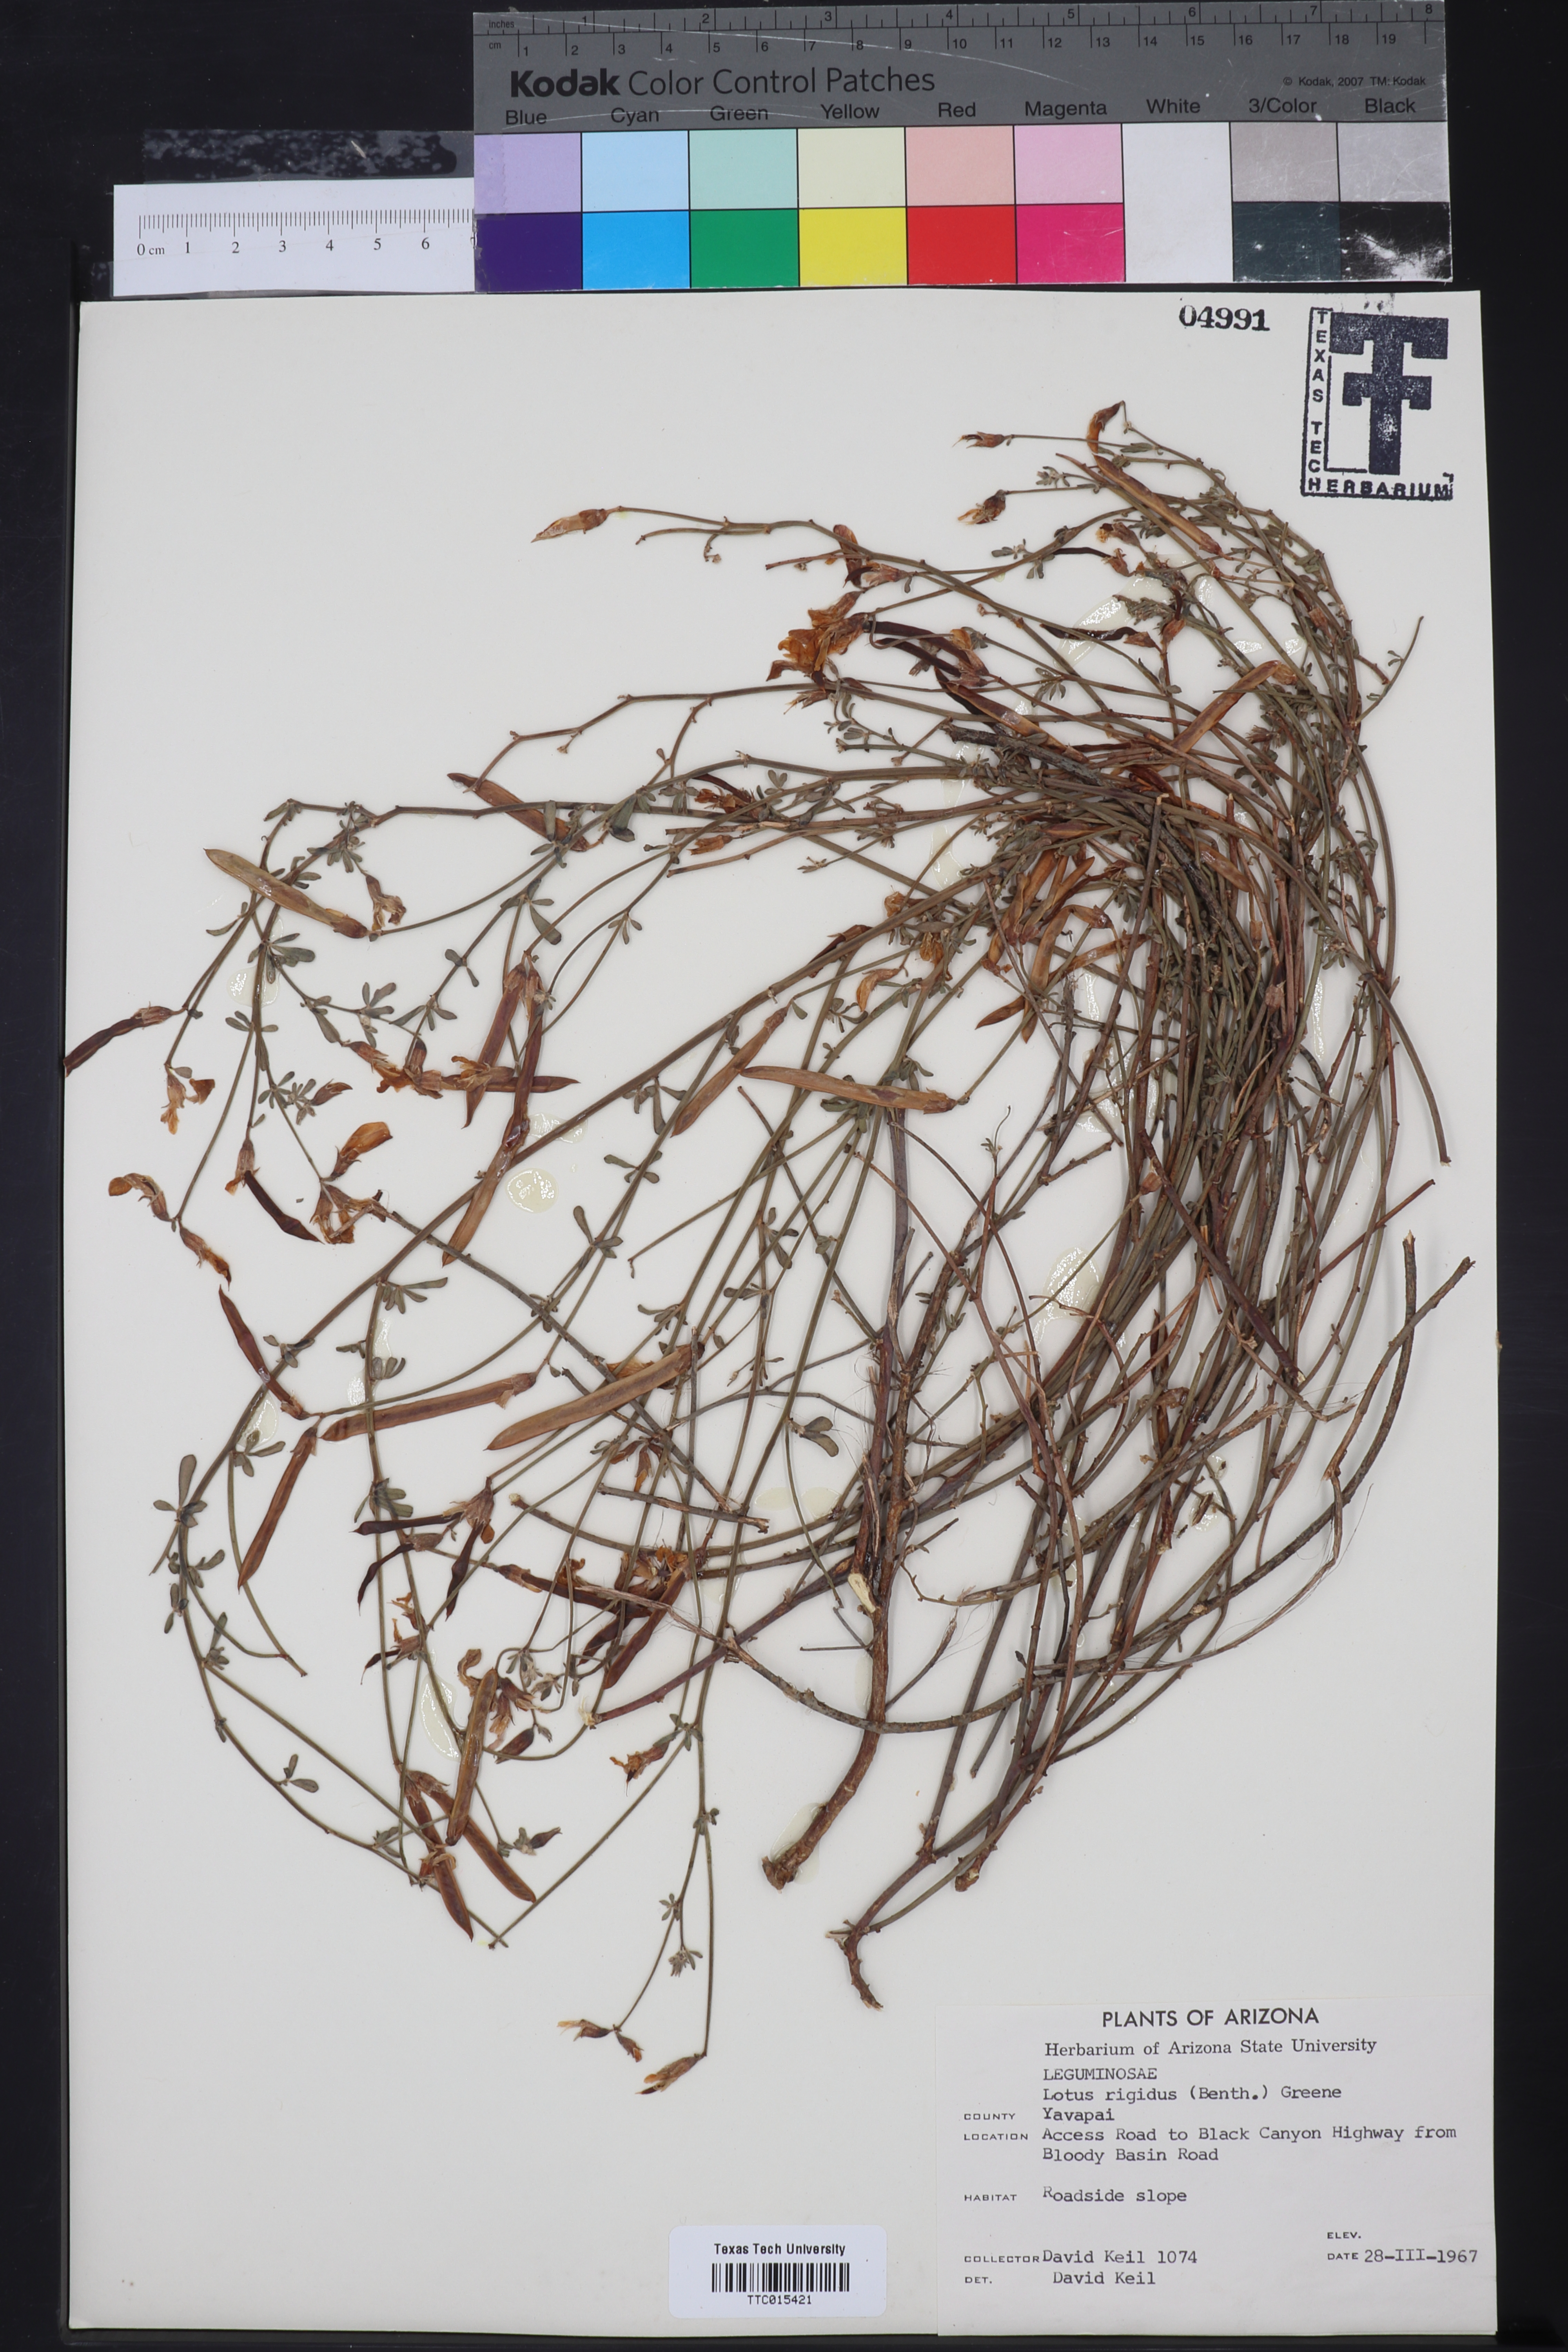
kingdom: Plantae
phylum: Tracheophyta
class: Magnoliopsida
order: Fabales
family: Fabaceae
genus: Acmispon
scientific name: Acmispon rigidus
